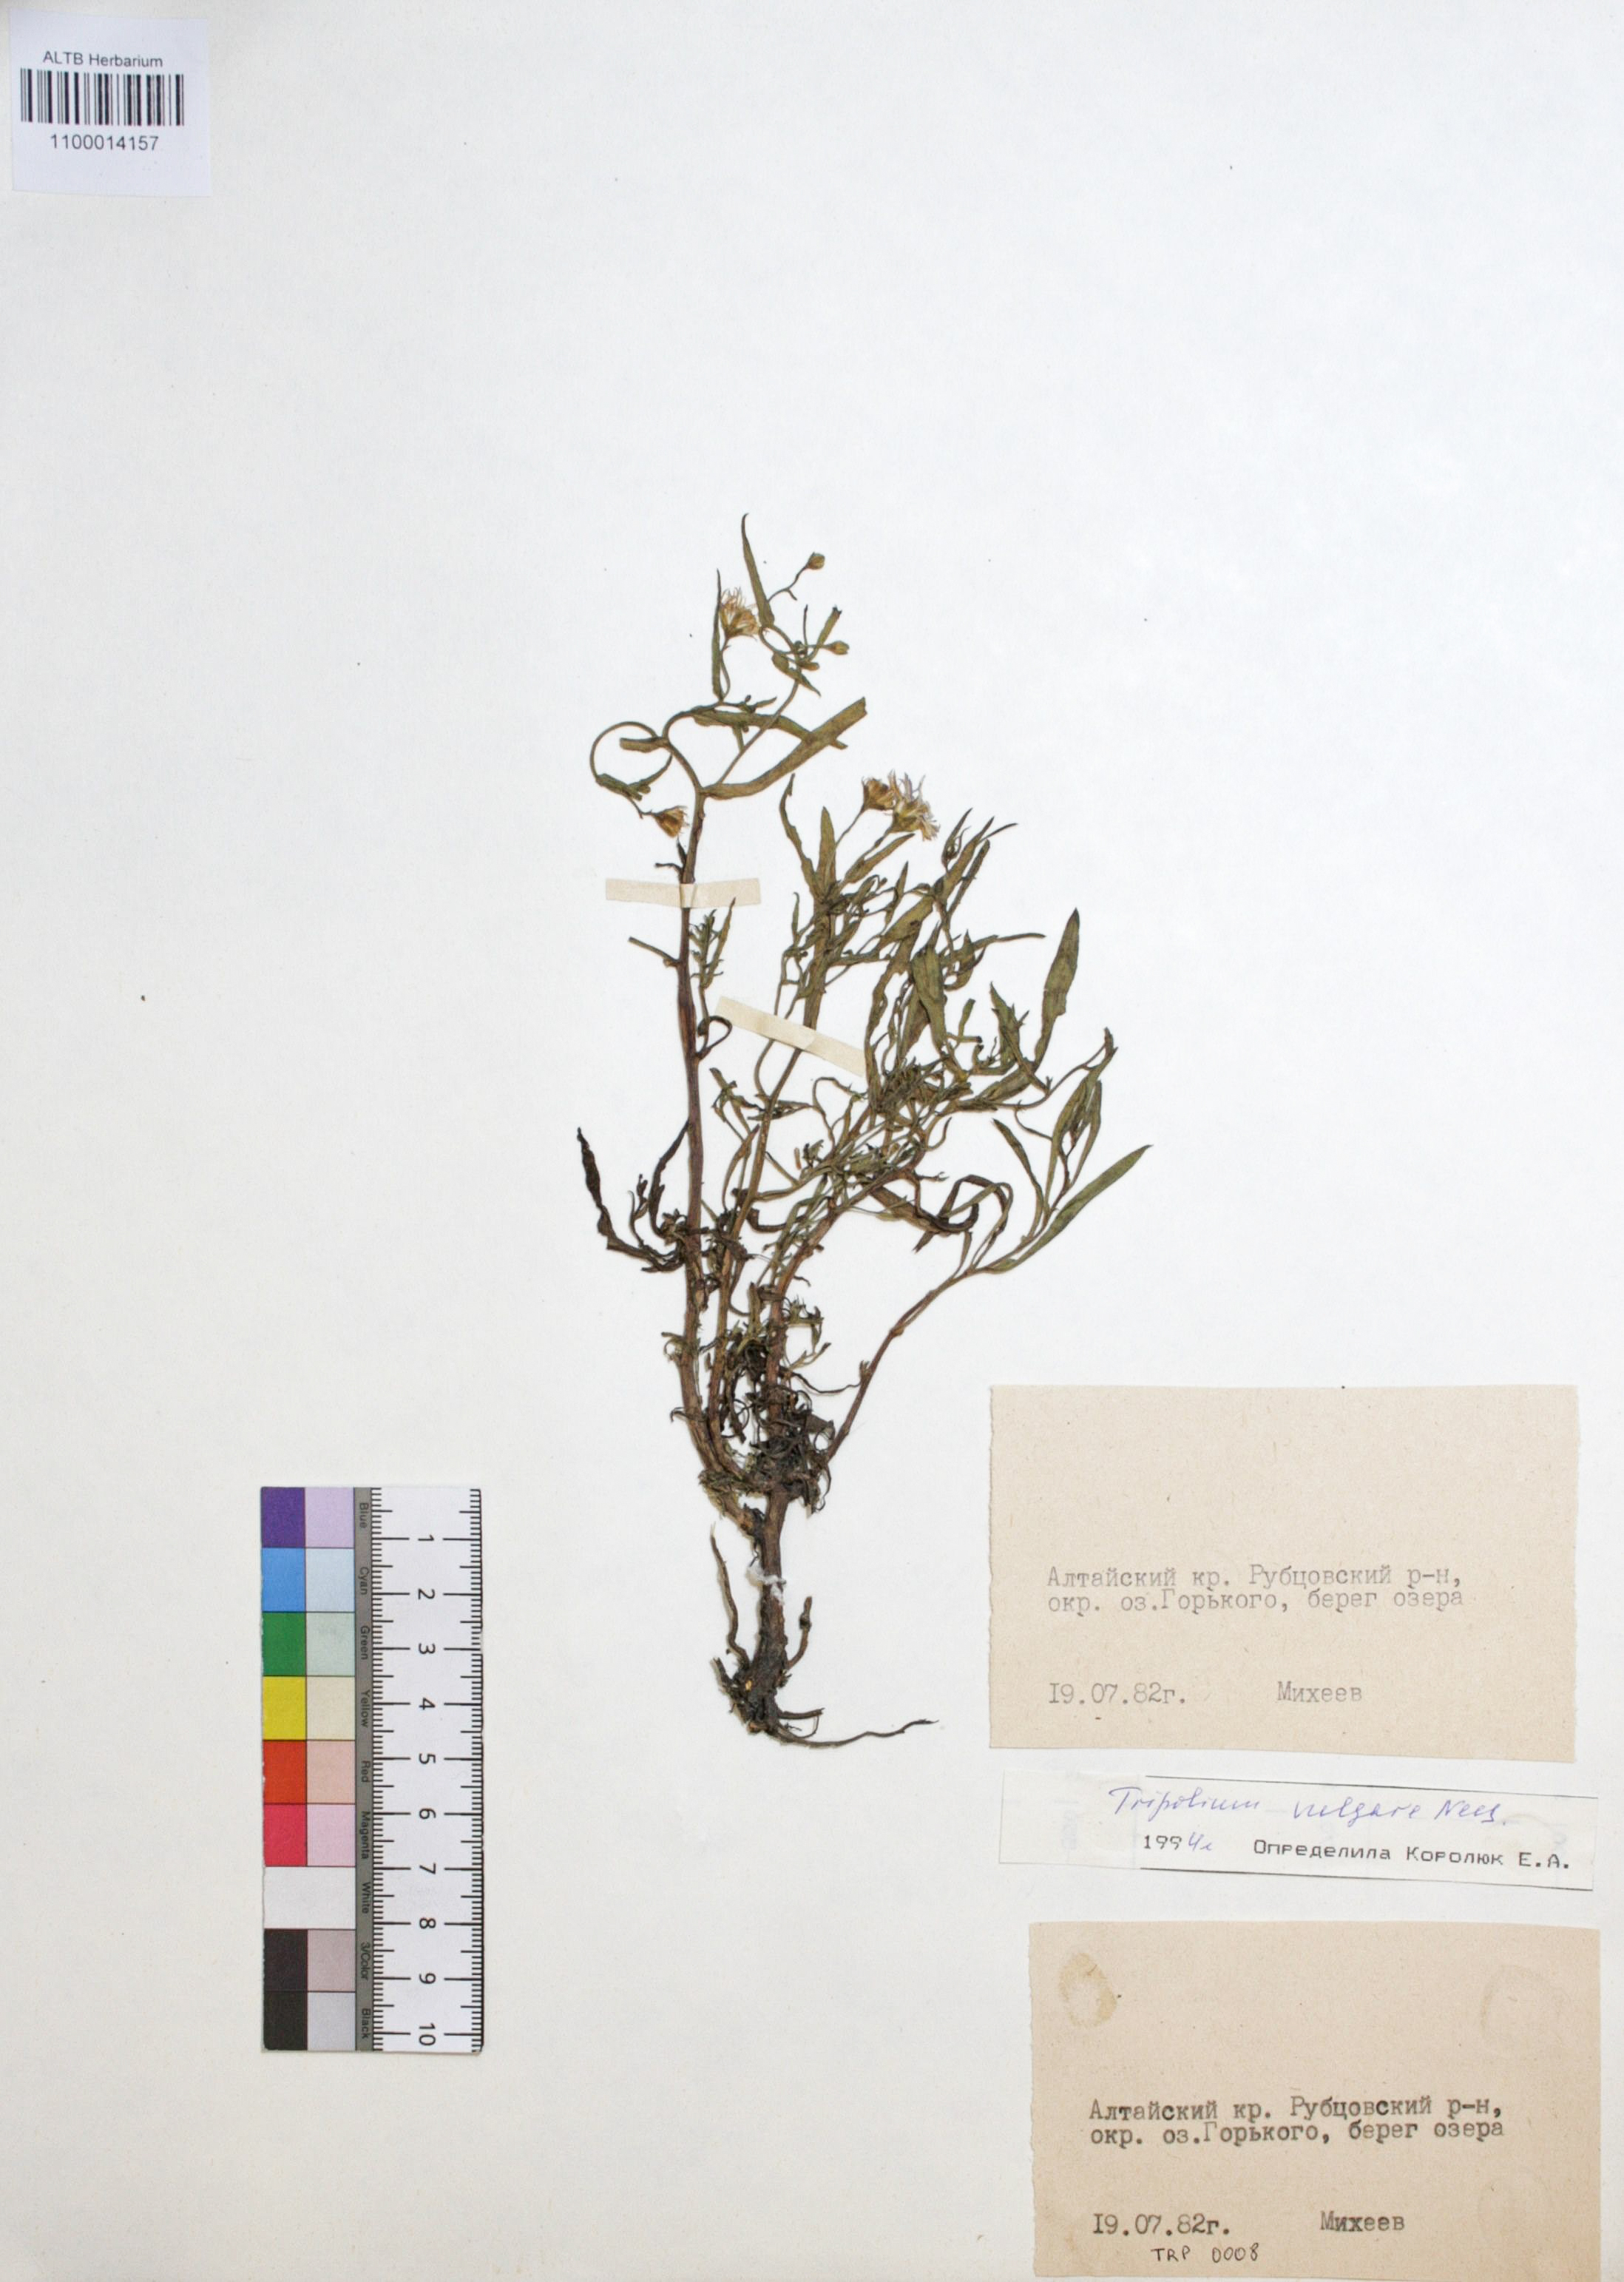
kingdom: Plantae
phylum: Tracheophyta
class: Magnoliopsida
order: Asterales
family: Asteraceae
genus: Tripolium
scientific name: Tripolium pannonicum
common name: Sea aster
